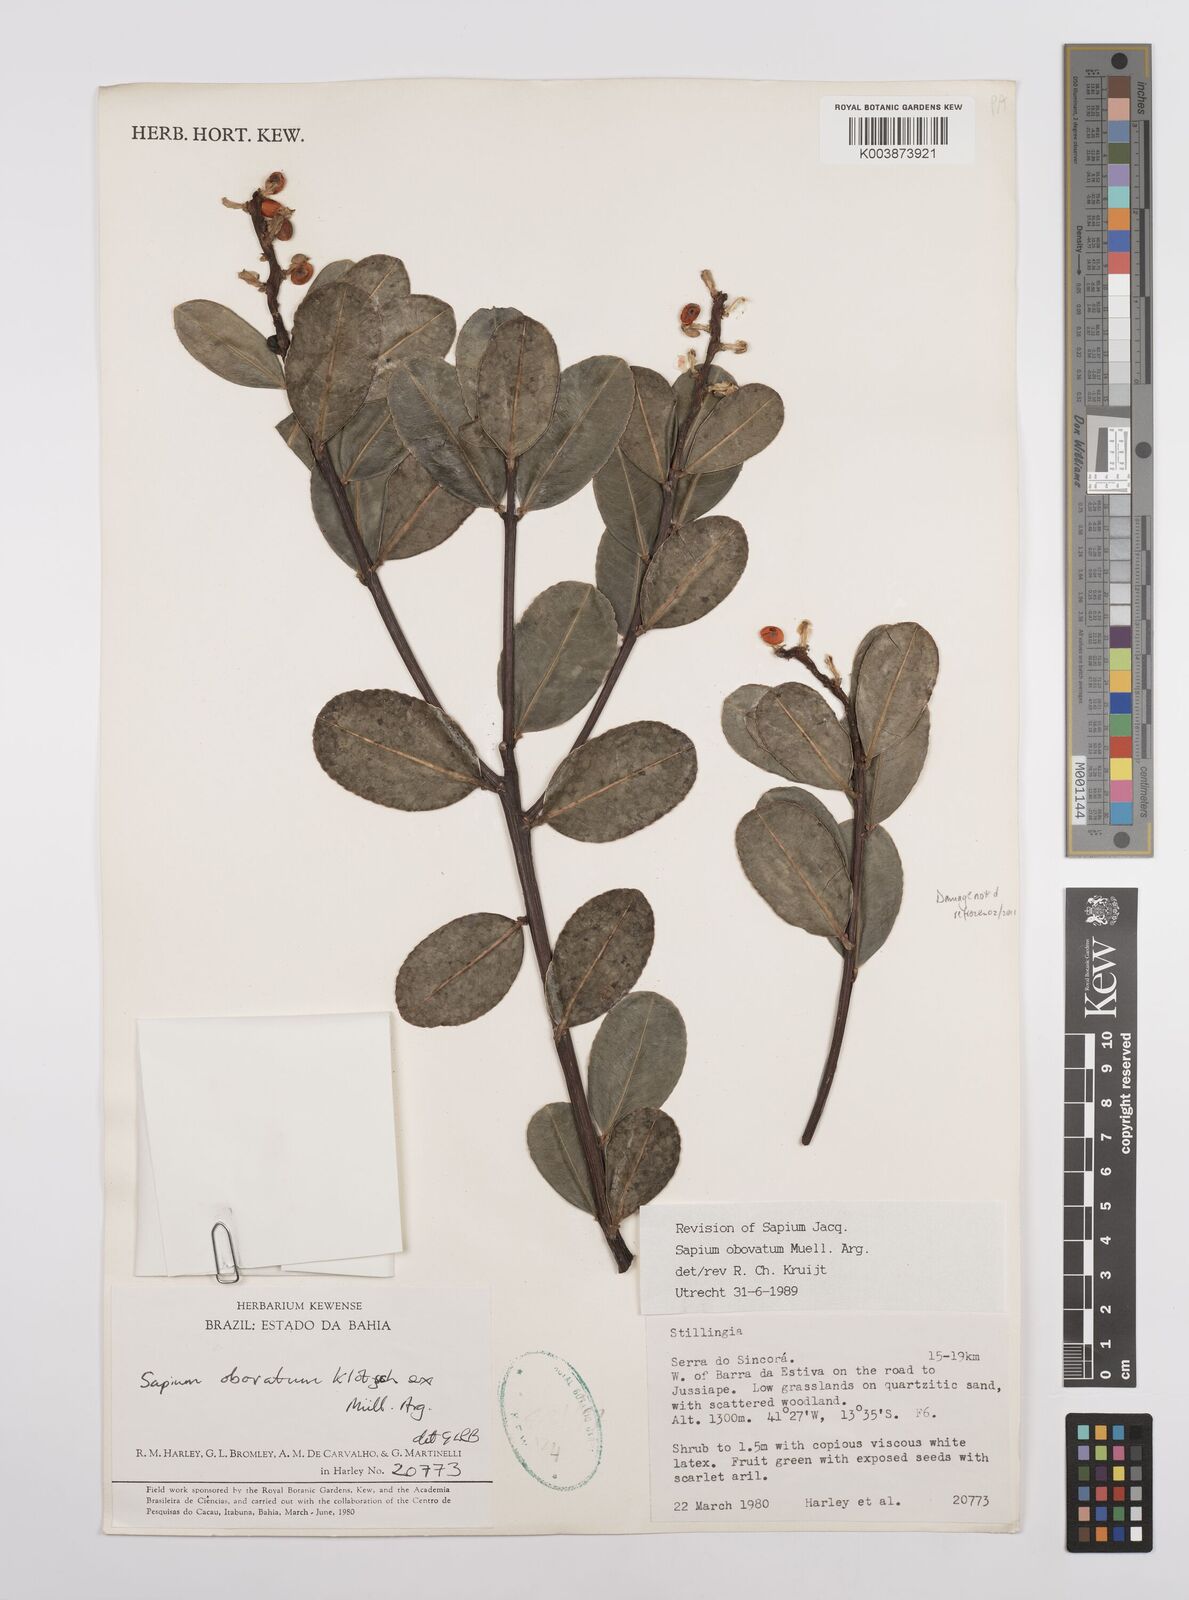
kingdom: Plantae
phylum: Tracheophyta
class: Magnoliopsida
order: Malpighiales
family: Euphorbiaceae
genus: Sapium
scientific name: Sapium obovatum
